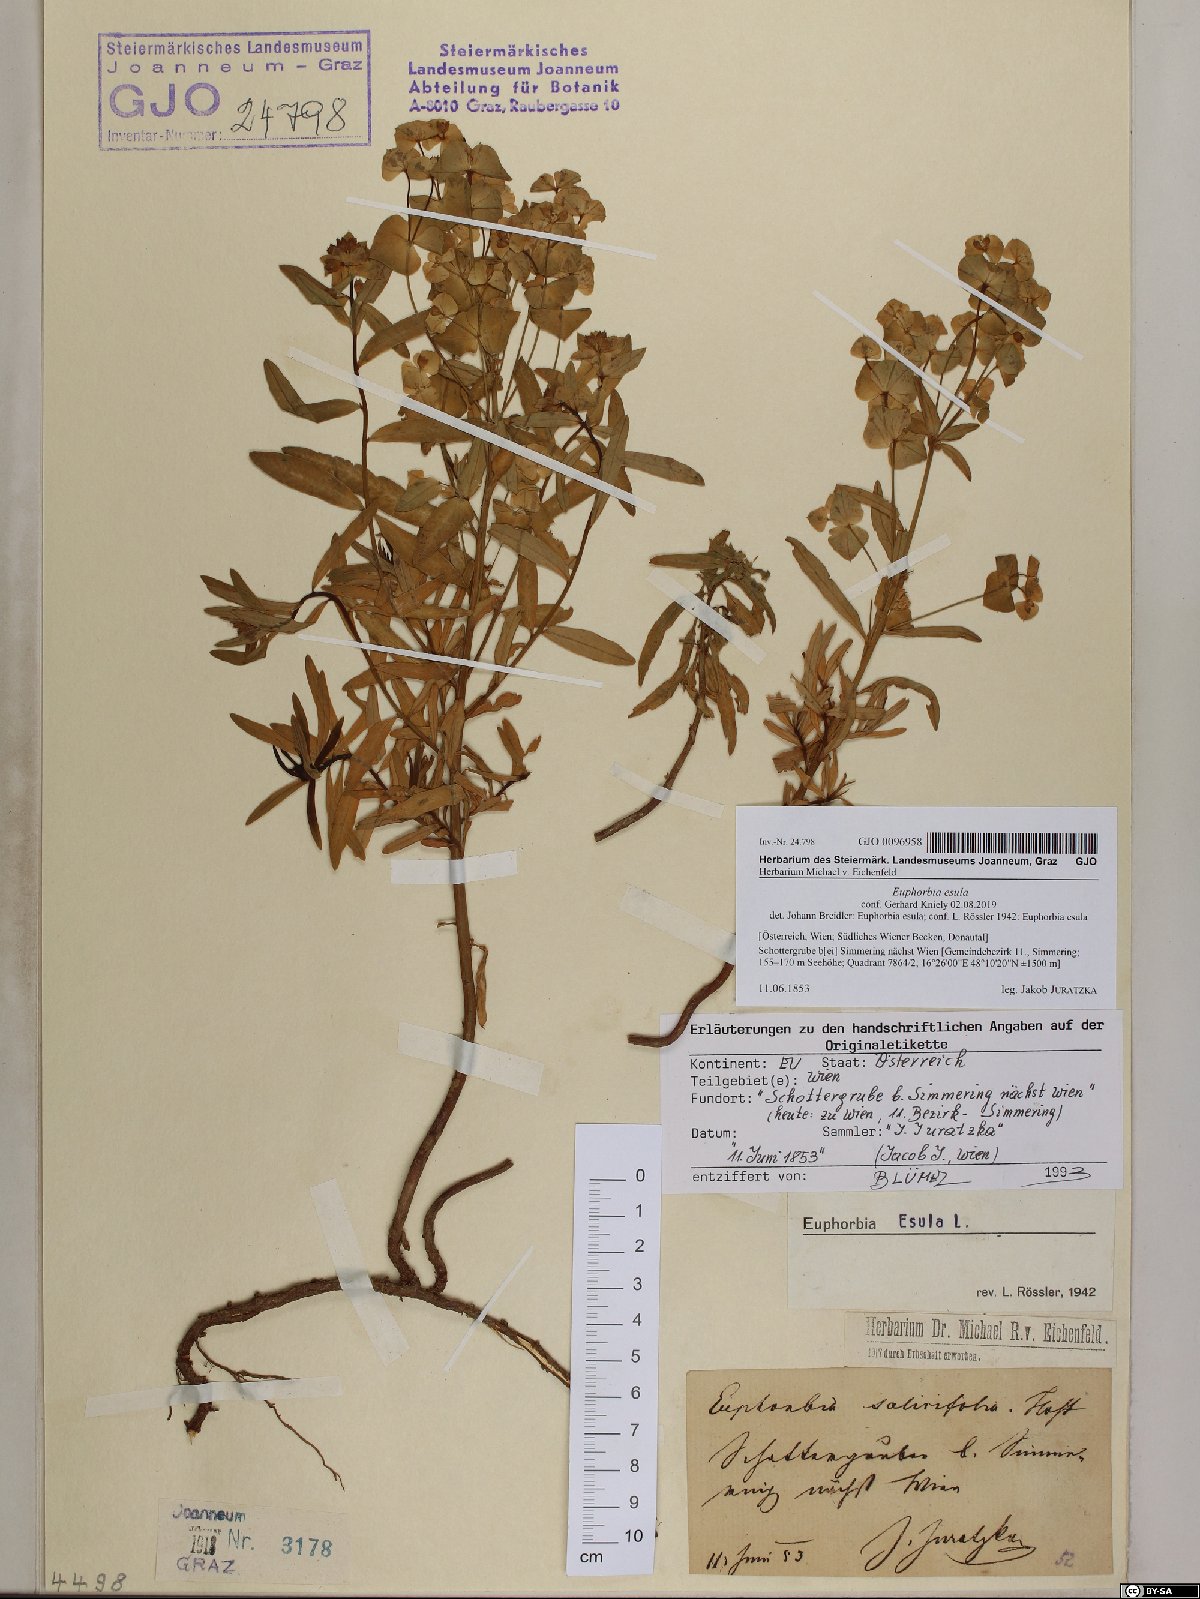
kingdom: Plantae
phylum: Tracheophyta
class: Magnoliopsida
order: Malpighiales
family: Euphorbiaceae
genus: Euphorbia
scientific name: Euphorbia esula
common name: Leafy spurge
